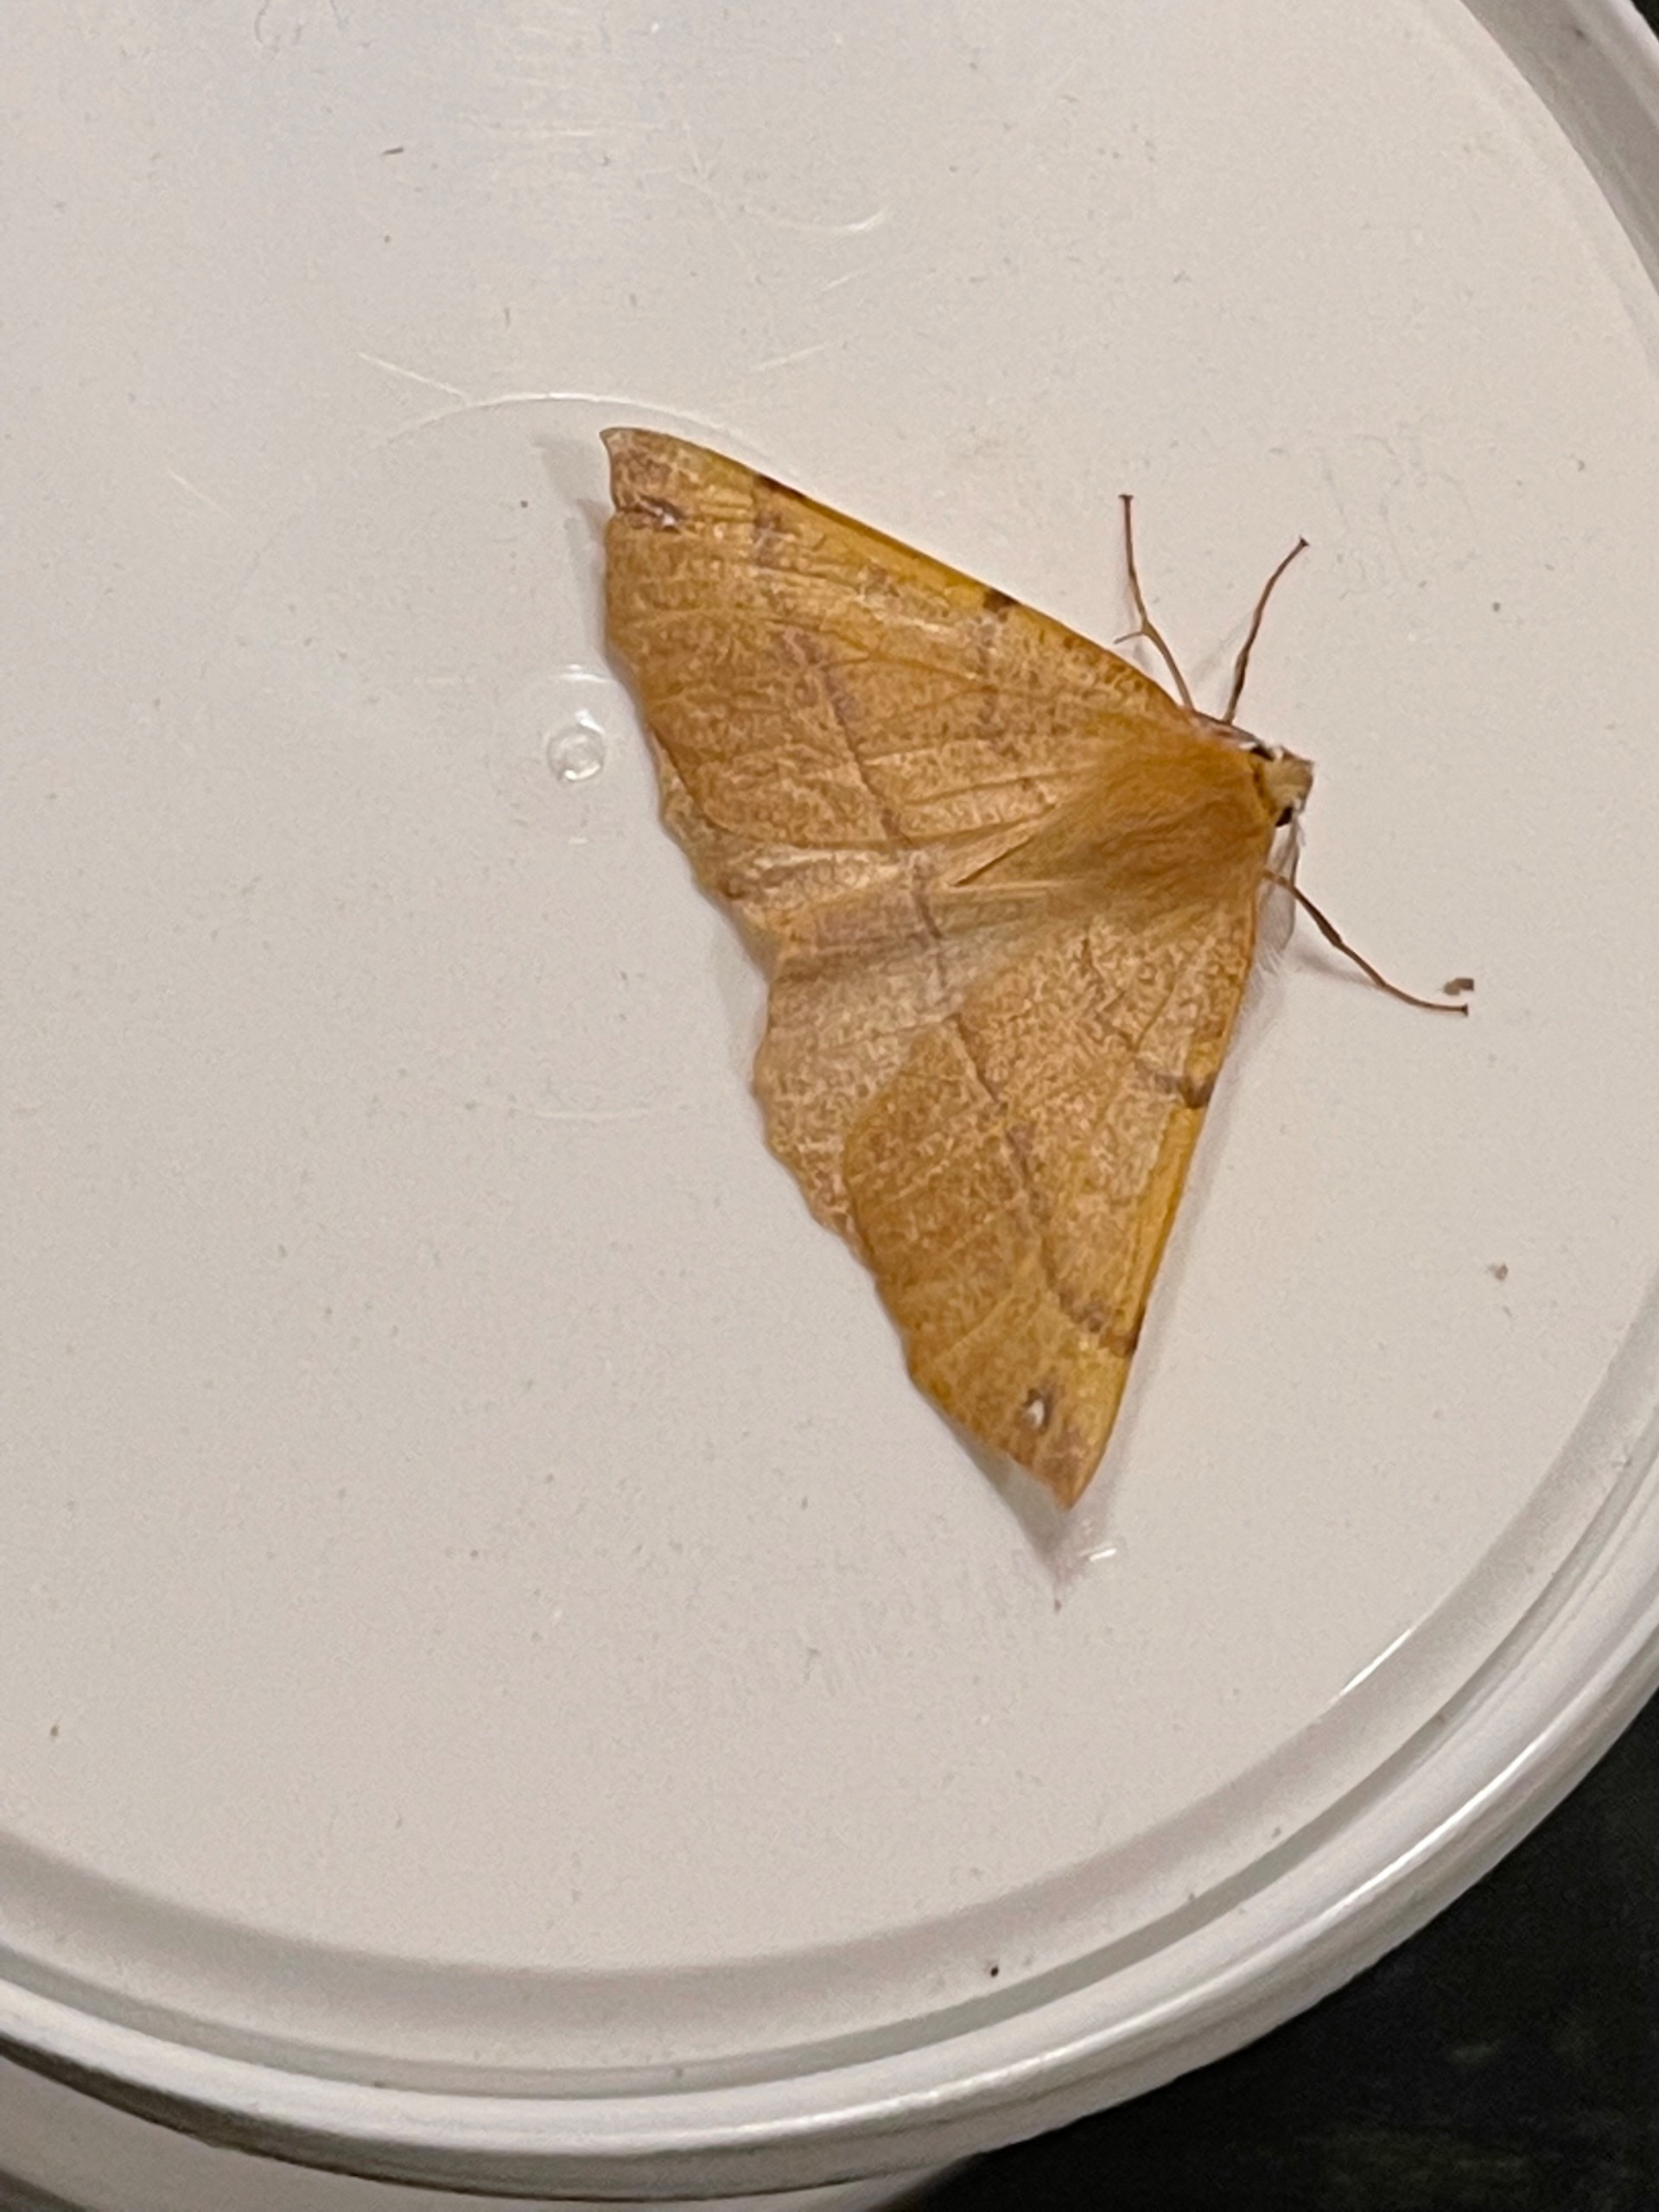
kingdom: Animalia
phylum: Arthropoda
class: Insecta
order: Lepidoptera
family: Geometridae
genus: Colotois
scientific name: Colotois pennaria
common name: Løvfaldsmåler
